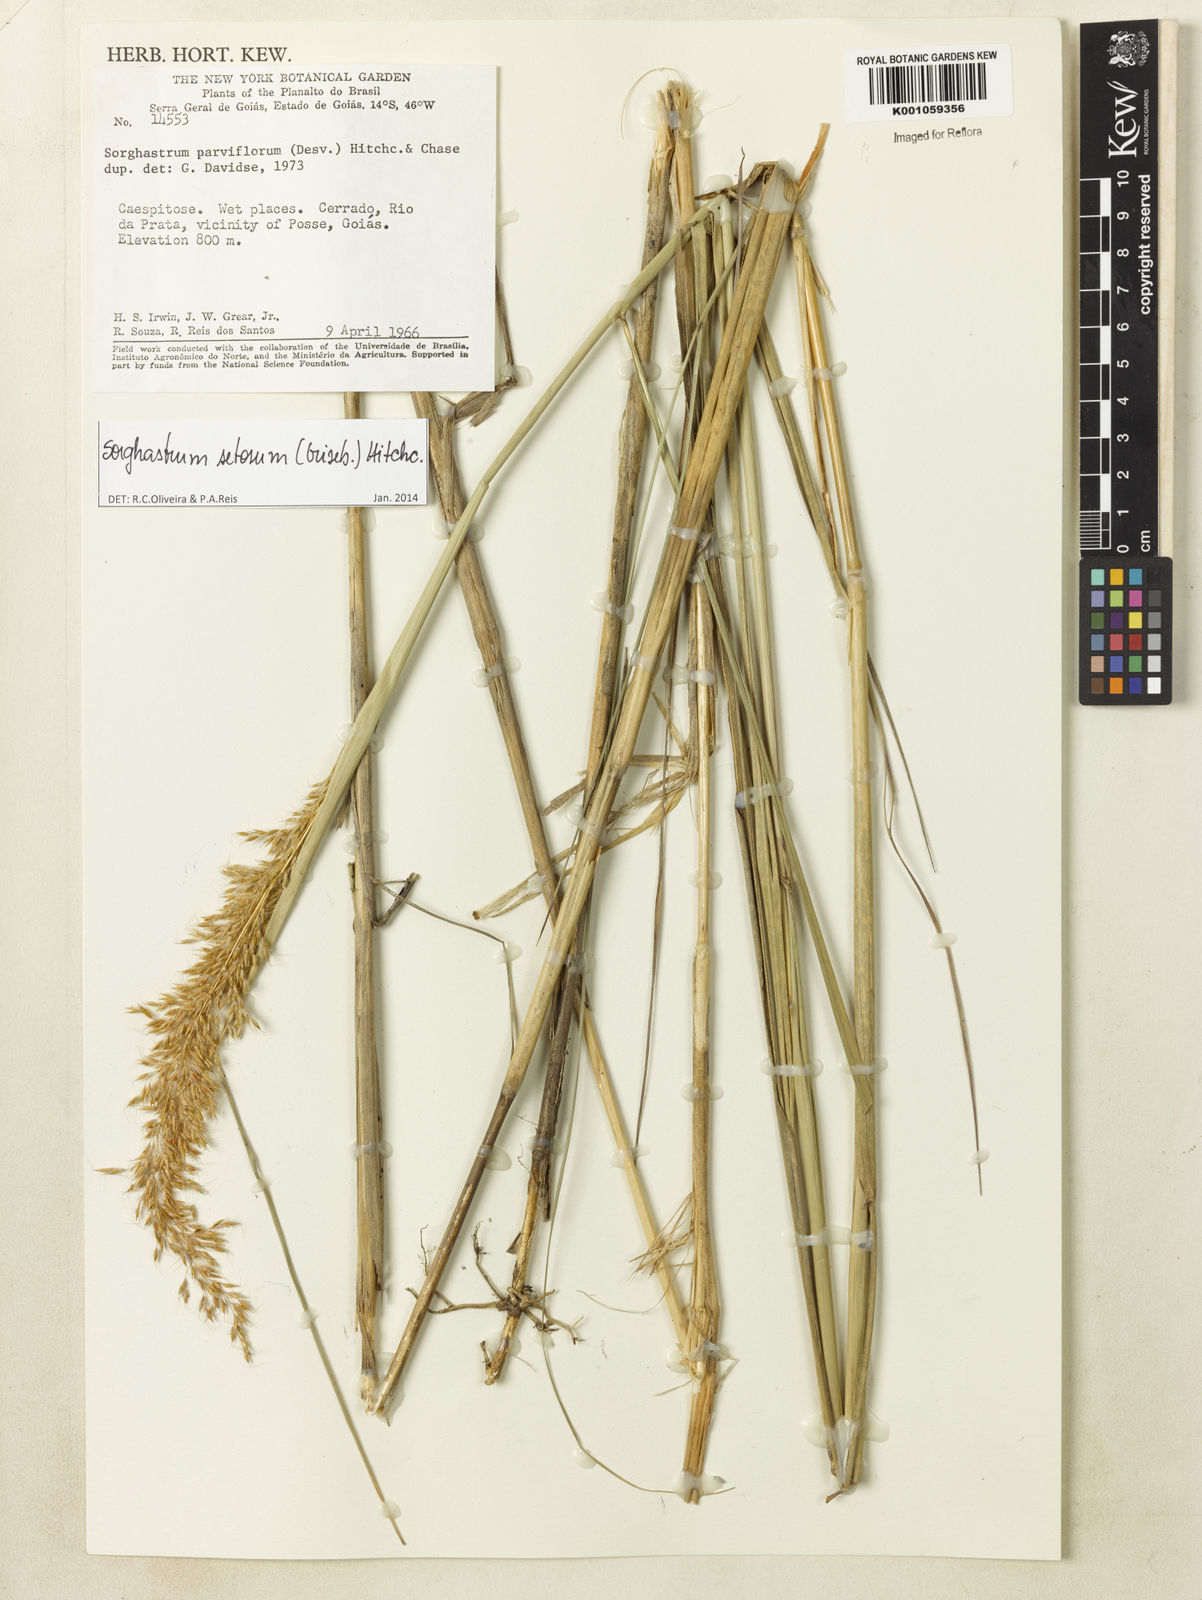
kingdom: Plantae
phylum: Tracheophyta
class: Liliopsida
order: Poales
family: Poaceae
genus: Sorghastrum
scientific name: Sorghastrum setosum
